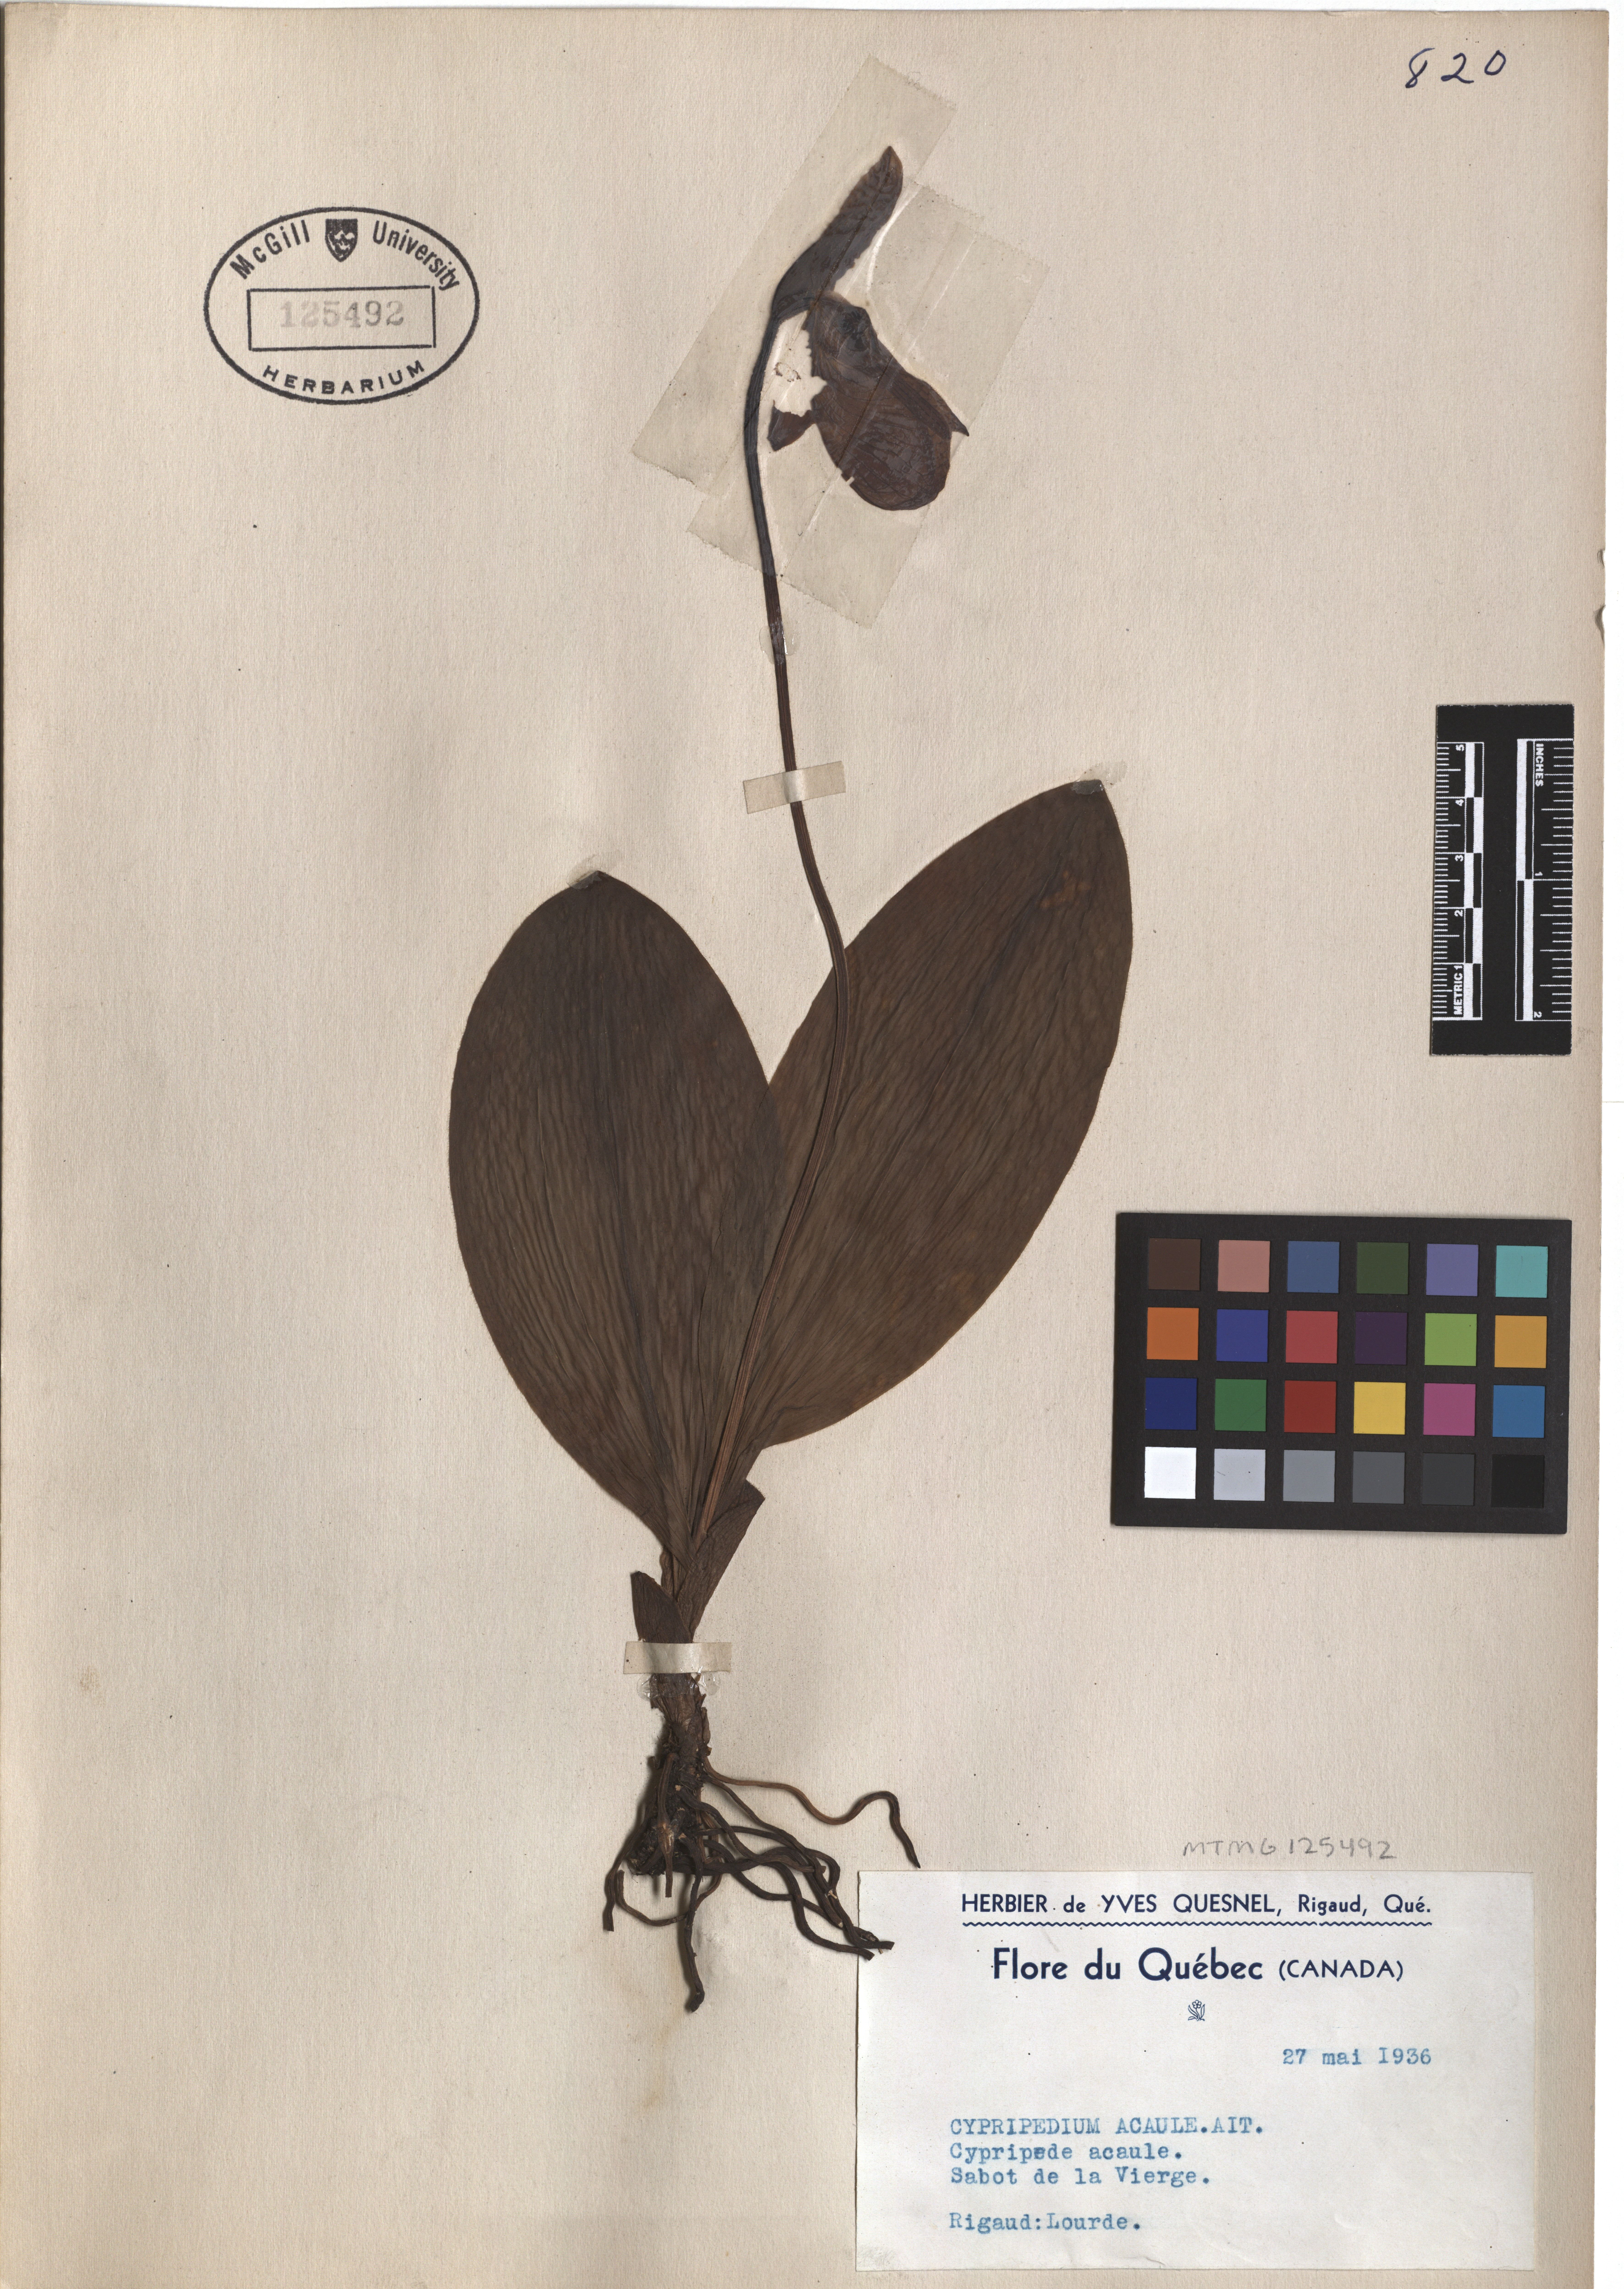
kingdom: Plantae
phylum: Tracheophyta
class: Liliopsida
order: Asparagales
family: Orchidaceae
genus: Cypripedium
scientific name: Cypripedium acaule
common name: Pink lady's-slipper
